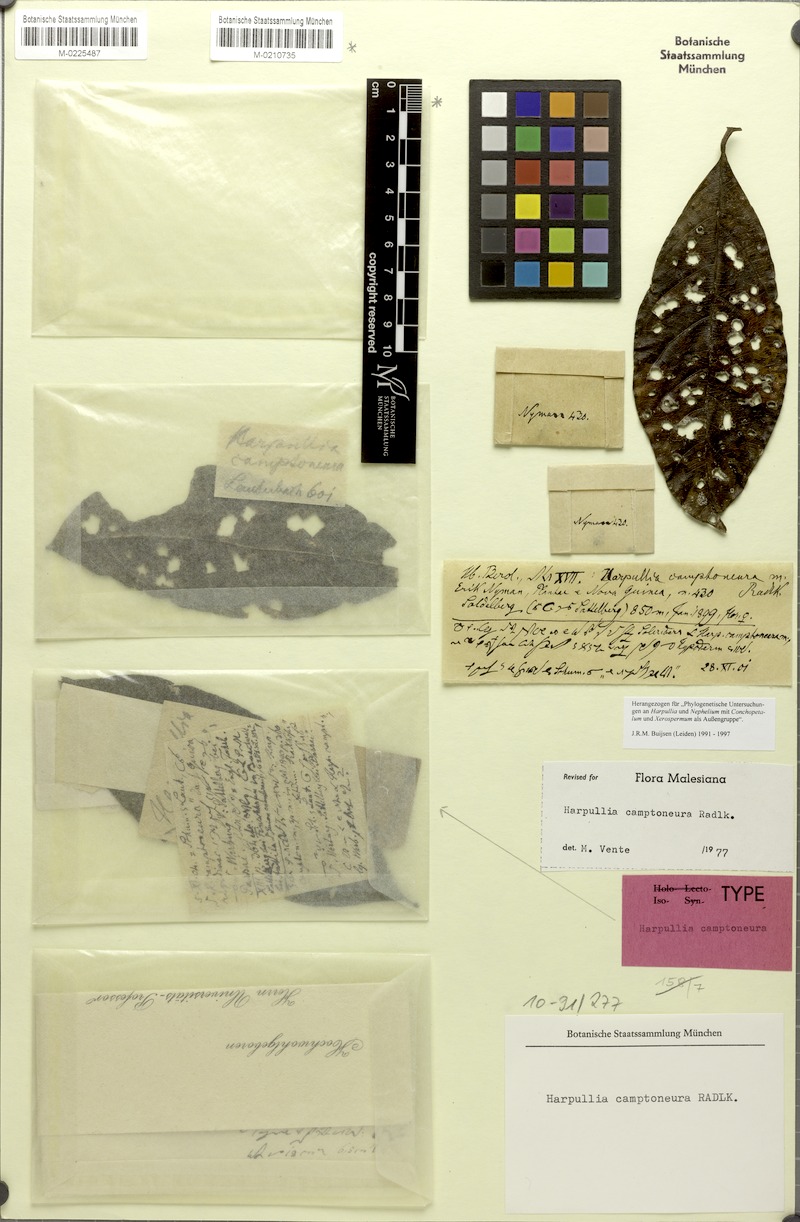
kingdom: Plantae
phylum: Tracheophyta
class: Magnoliopsida
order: Sapindales
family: Sapindaceae
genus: Harpullia
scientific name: Harpullia camptoneura
